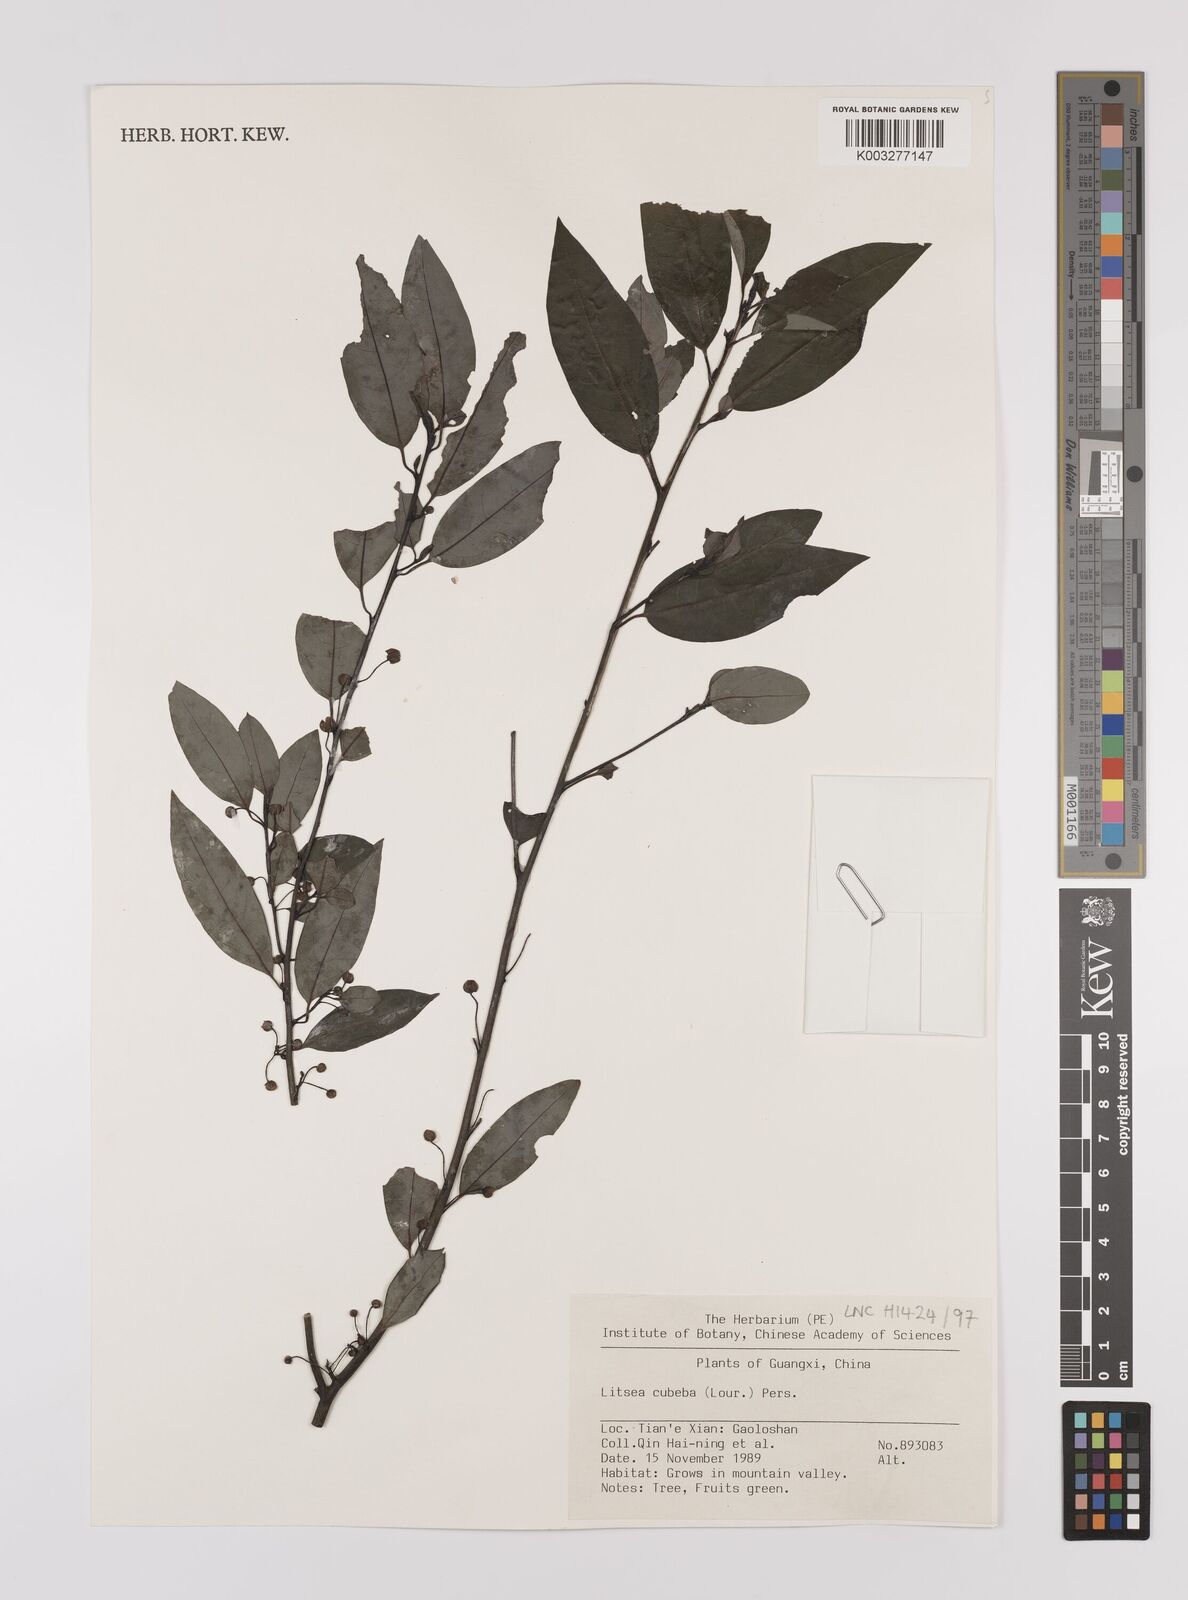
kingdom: Plantae
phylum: Tracheophyta
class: Magnoliopsida
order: Laurales
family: Lauraceae
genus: Litsea
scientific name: Litsea cubeba
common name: Mountain-pepper
